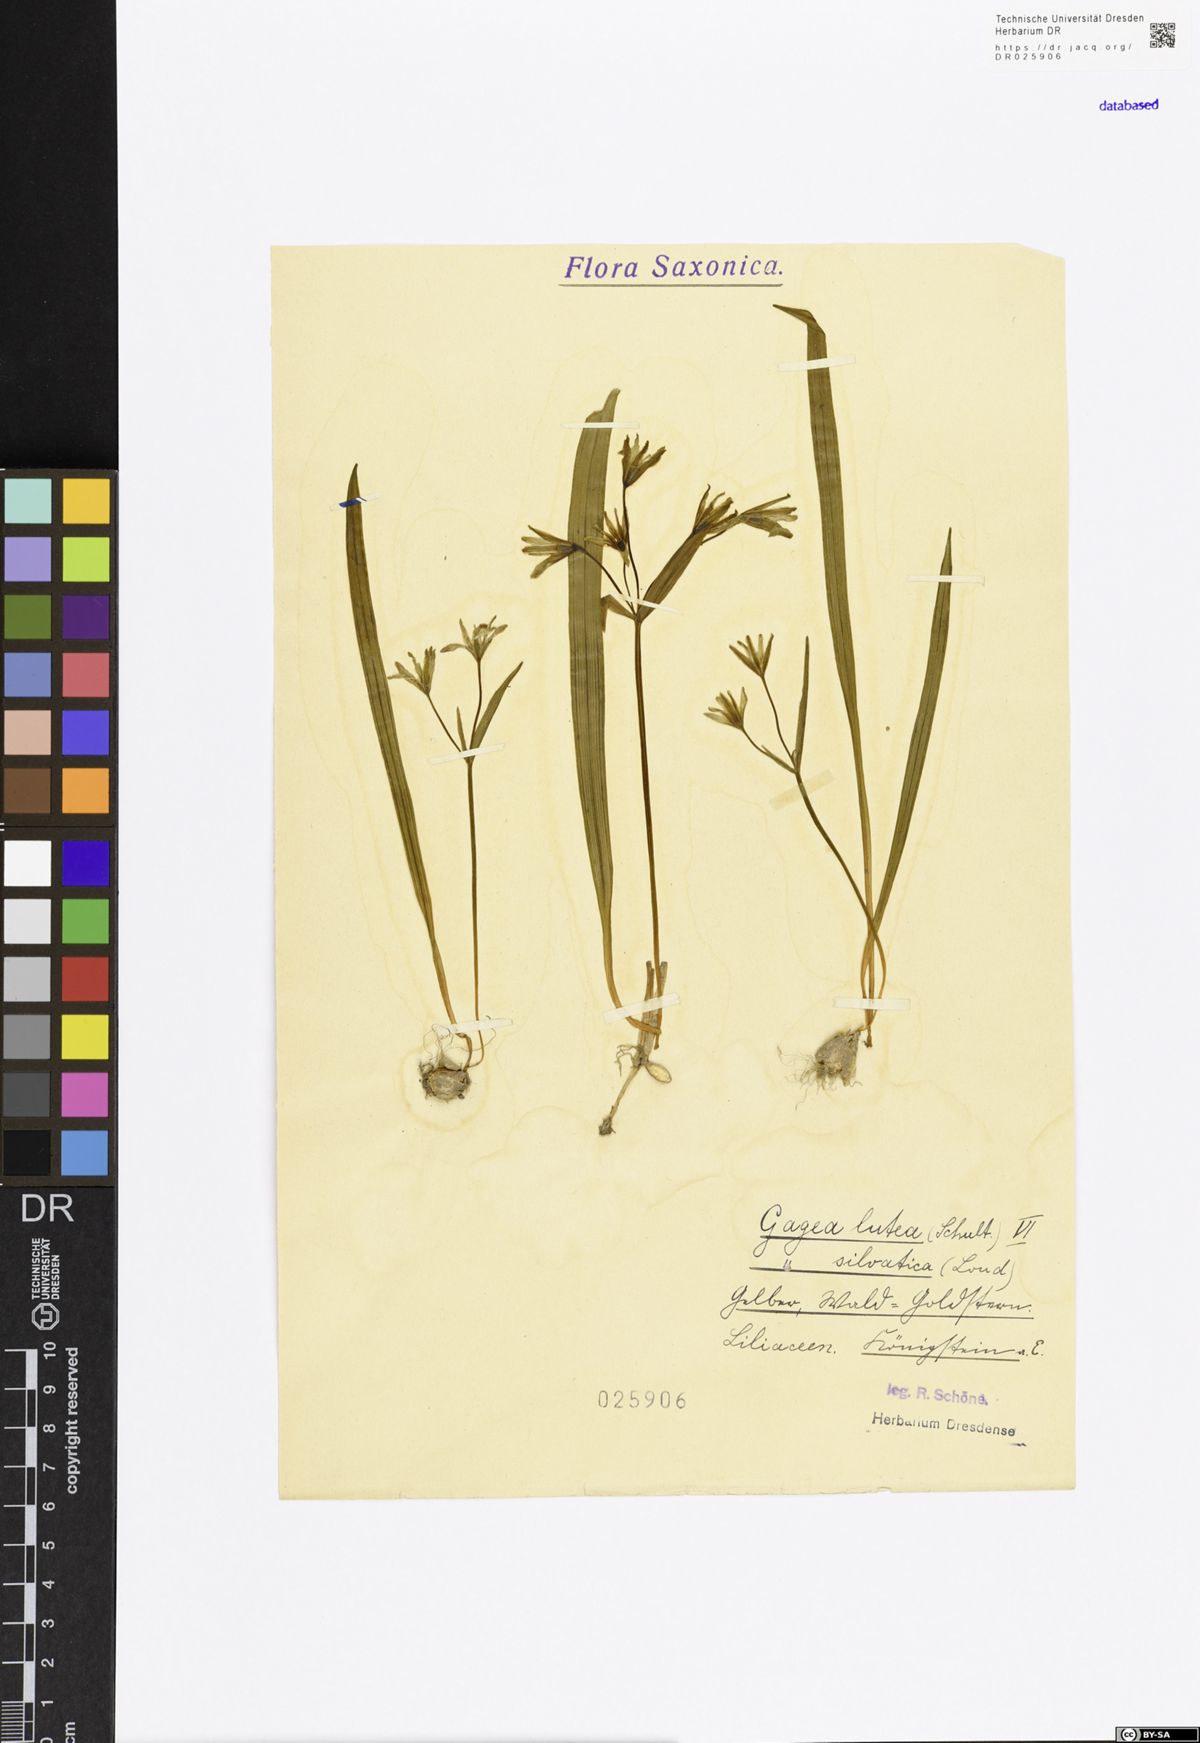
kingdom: Plantae
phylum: Tracheophyta
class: Liliopsida
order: Liliales
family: Liliaceae
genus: Gagea
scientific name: Gagea lutea
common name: Yellow star-of-bethlehem
